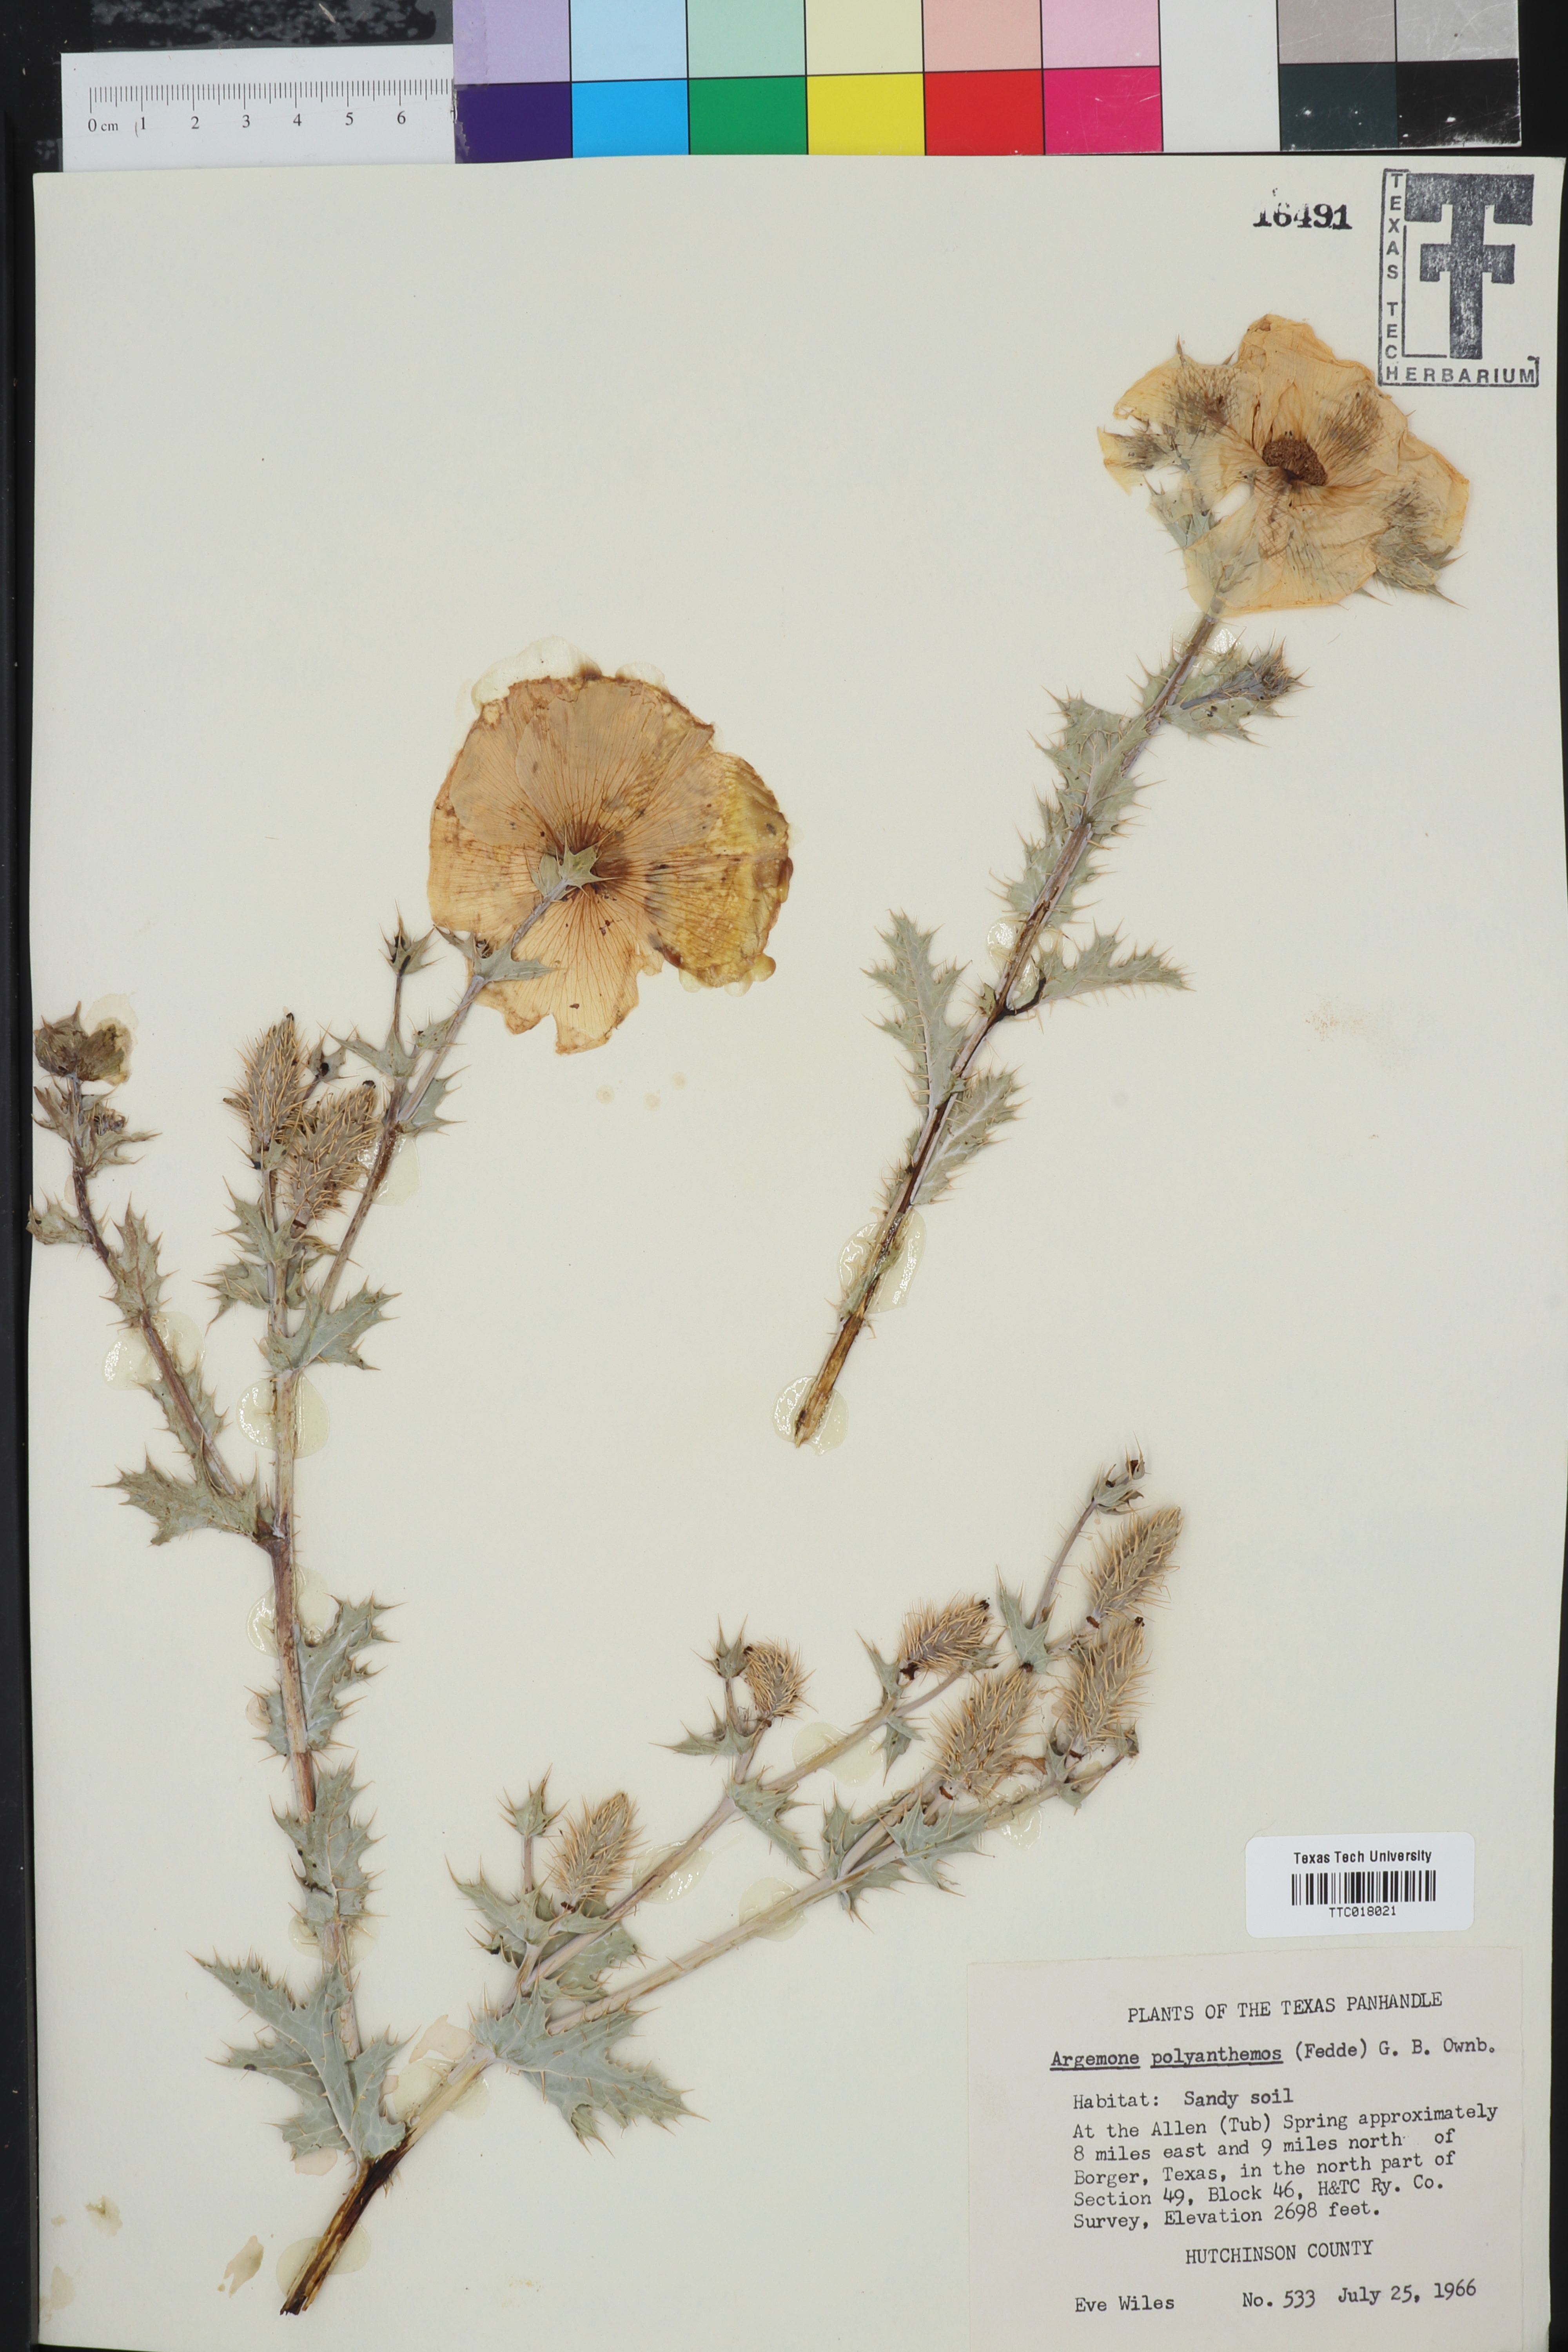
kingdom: Plantae
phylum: Tracheophyta
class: Magnoliopsida
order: Ranunculales
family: Papaveraceae
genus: Argemone
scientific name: Argemone polyanthemos
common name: Plains prickly-poppy
